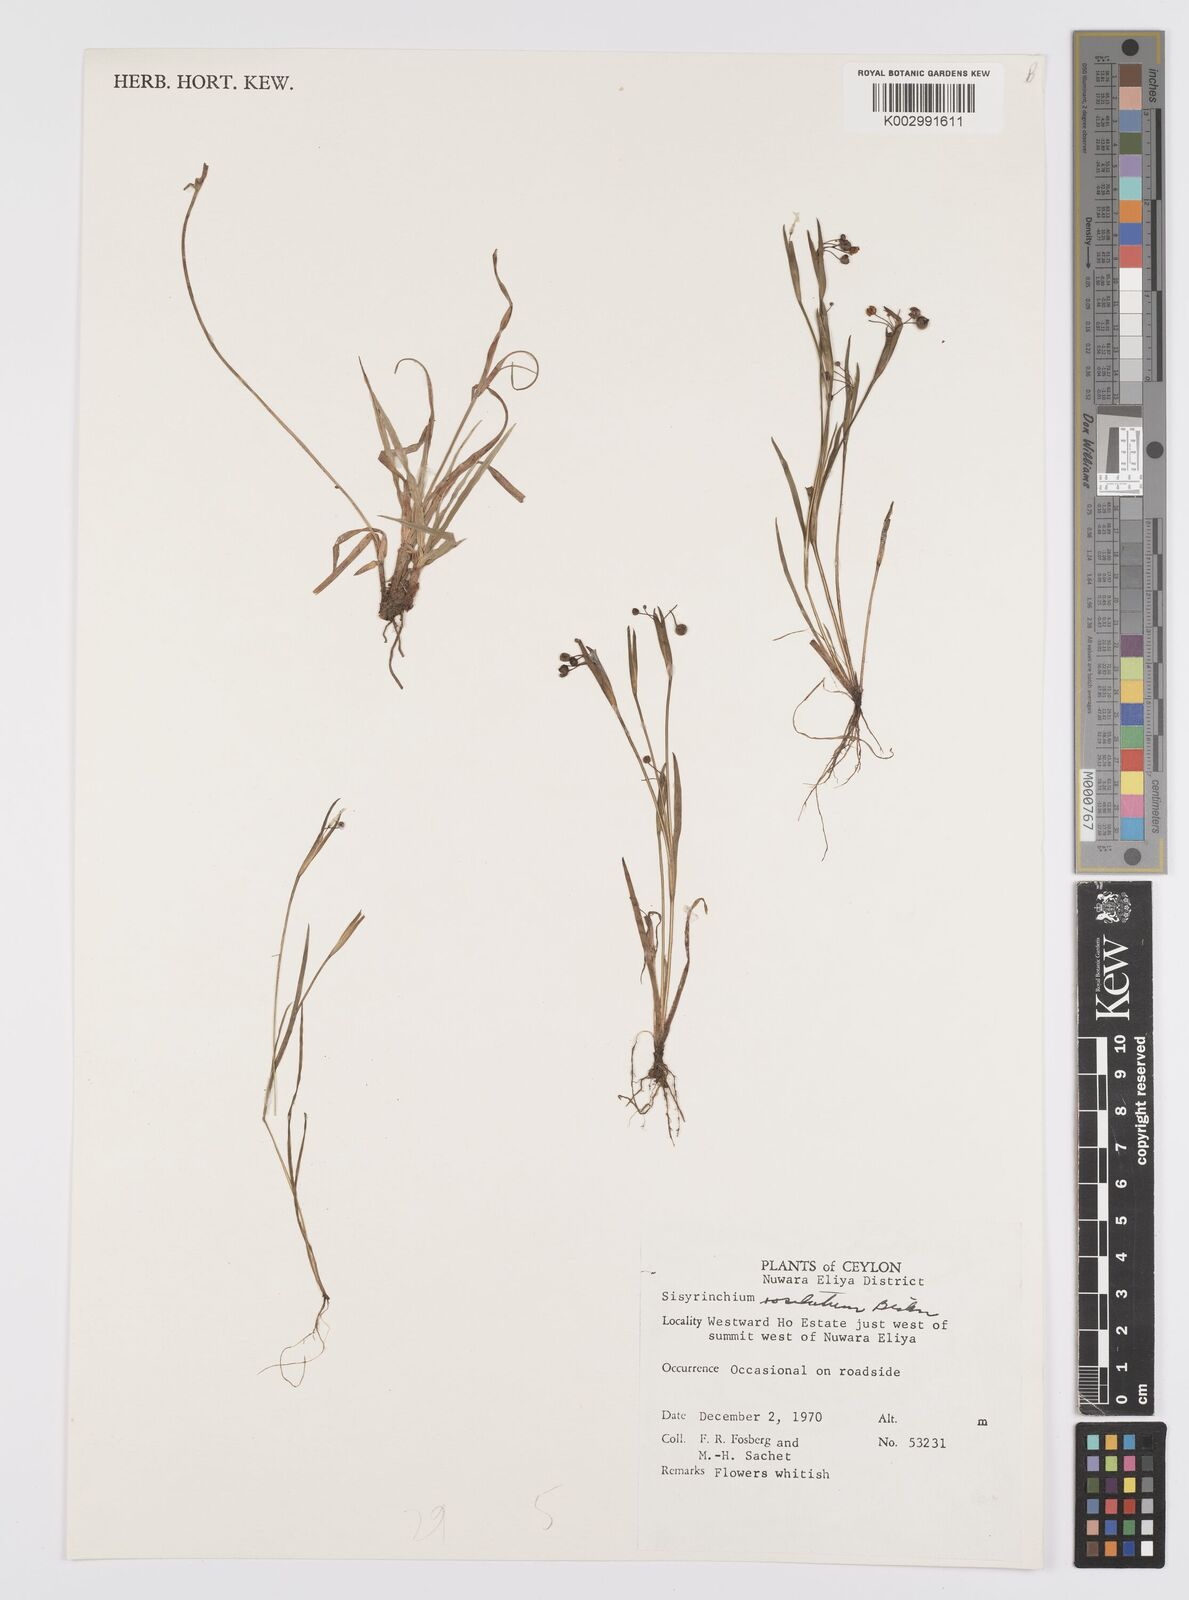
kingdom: Plantae
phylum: Tracheophyta
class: Liliopsida
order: Asparagales
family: Iridaceae
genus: Sisyrinchium
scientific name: Sisyrinchium rosulatum
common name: Annual blue-eyed grass
